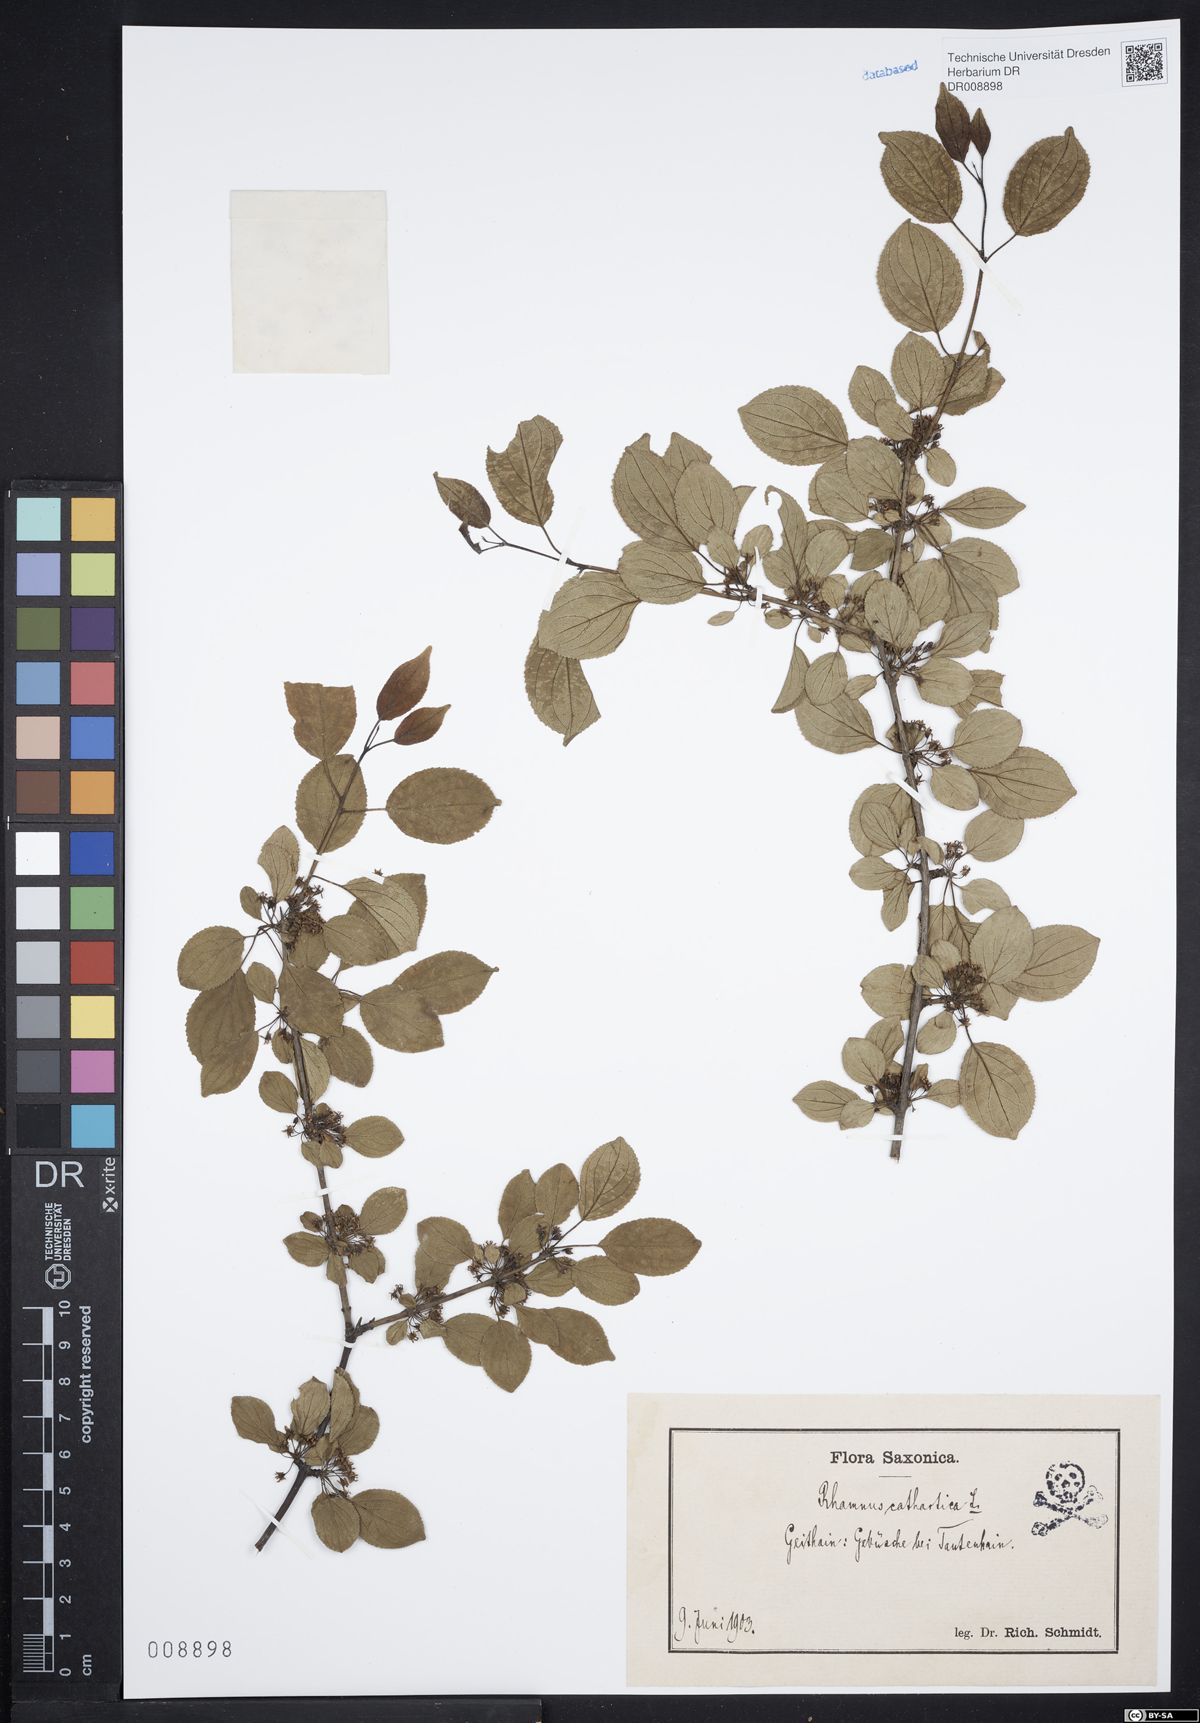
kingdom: Plantae
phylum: Tracheophyta
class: Magnoliopsida
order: Rosales
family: Rhamnaceae
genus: Rhamnus
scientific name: Rhamnus cathartica
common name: Common buckthorn
